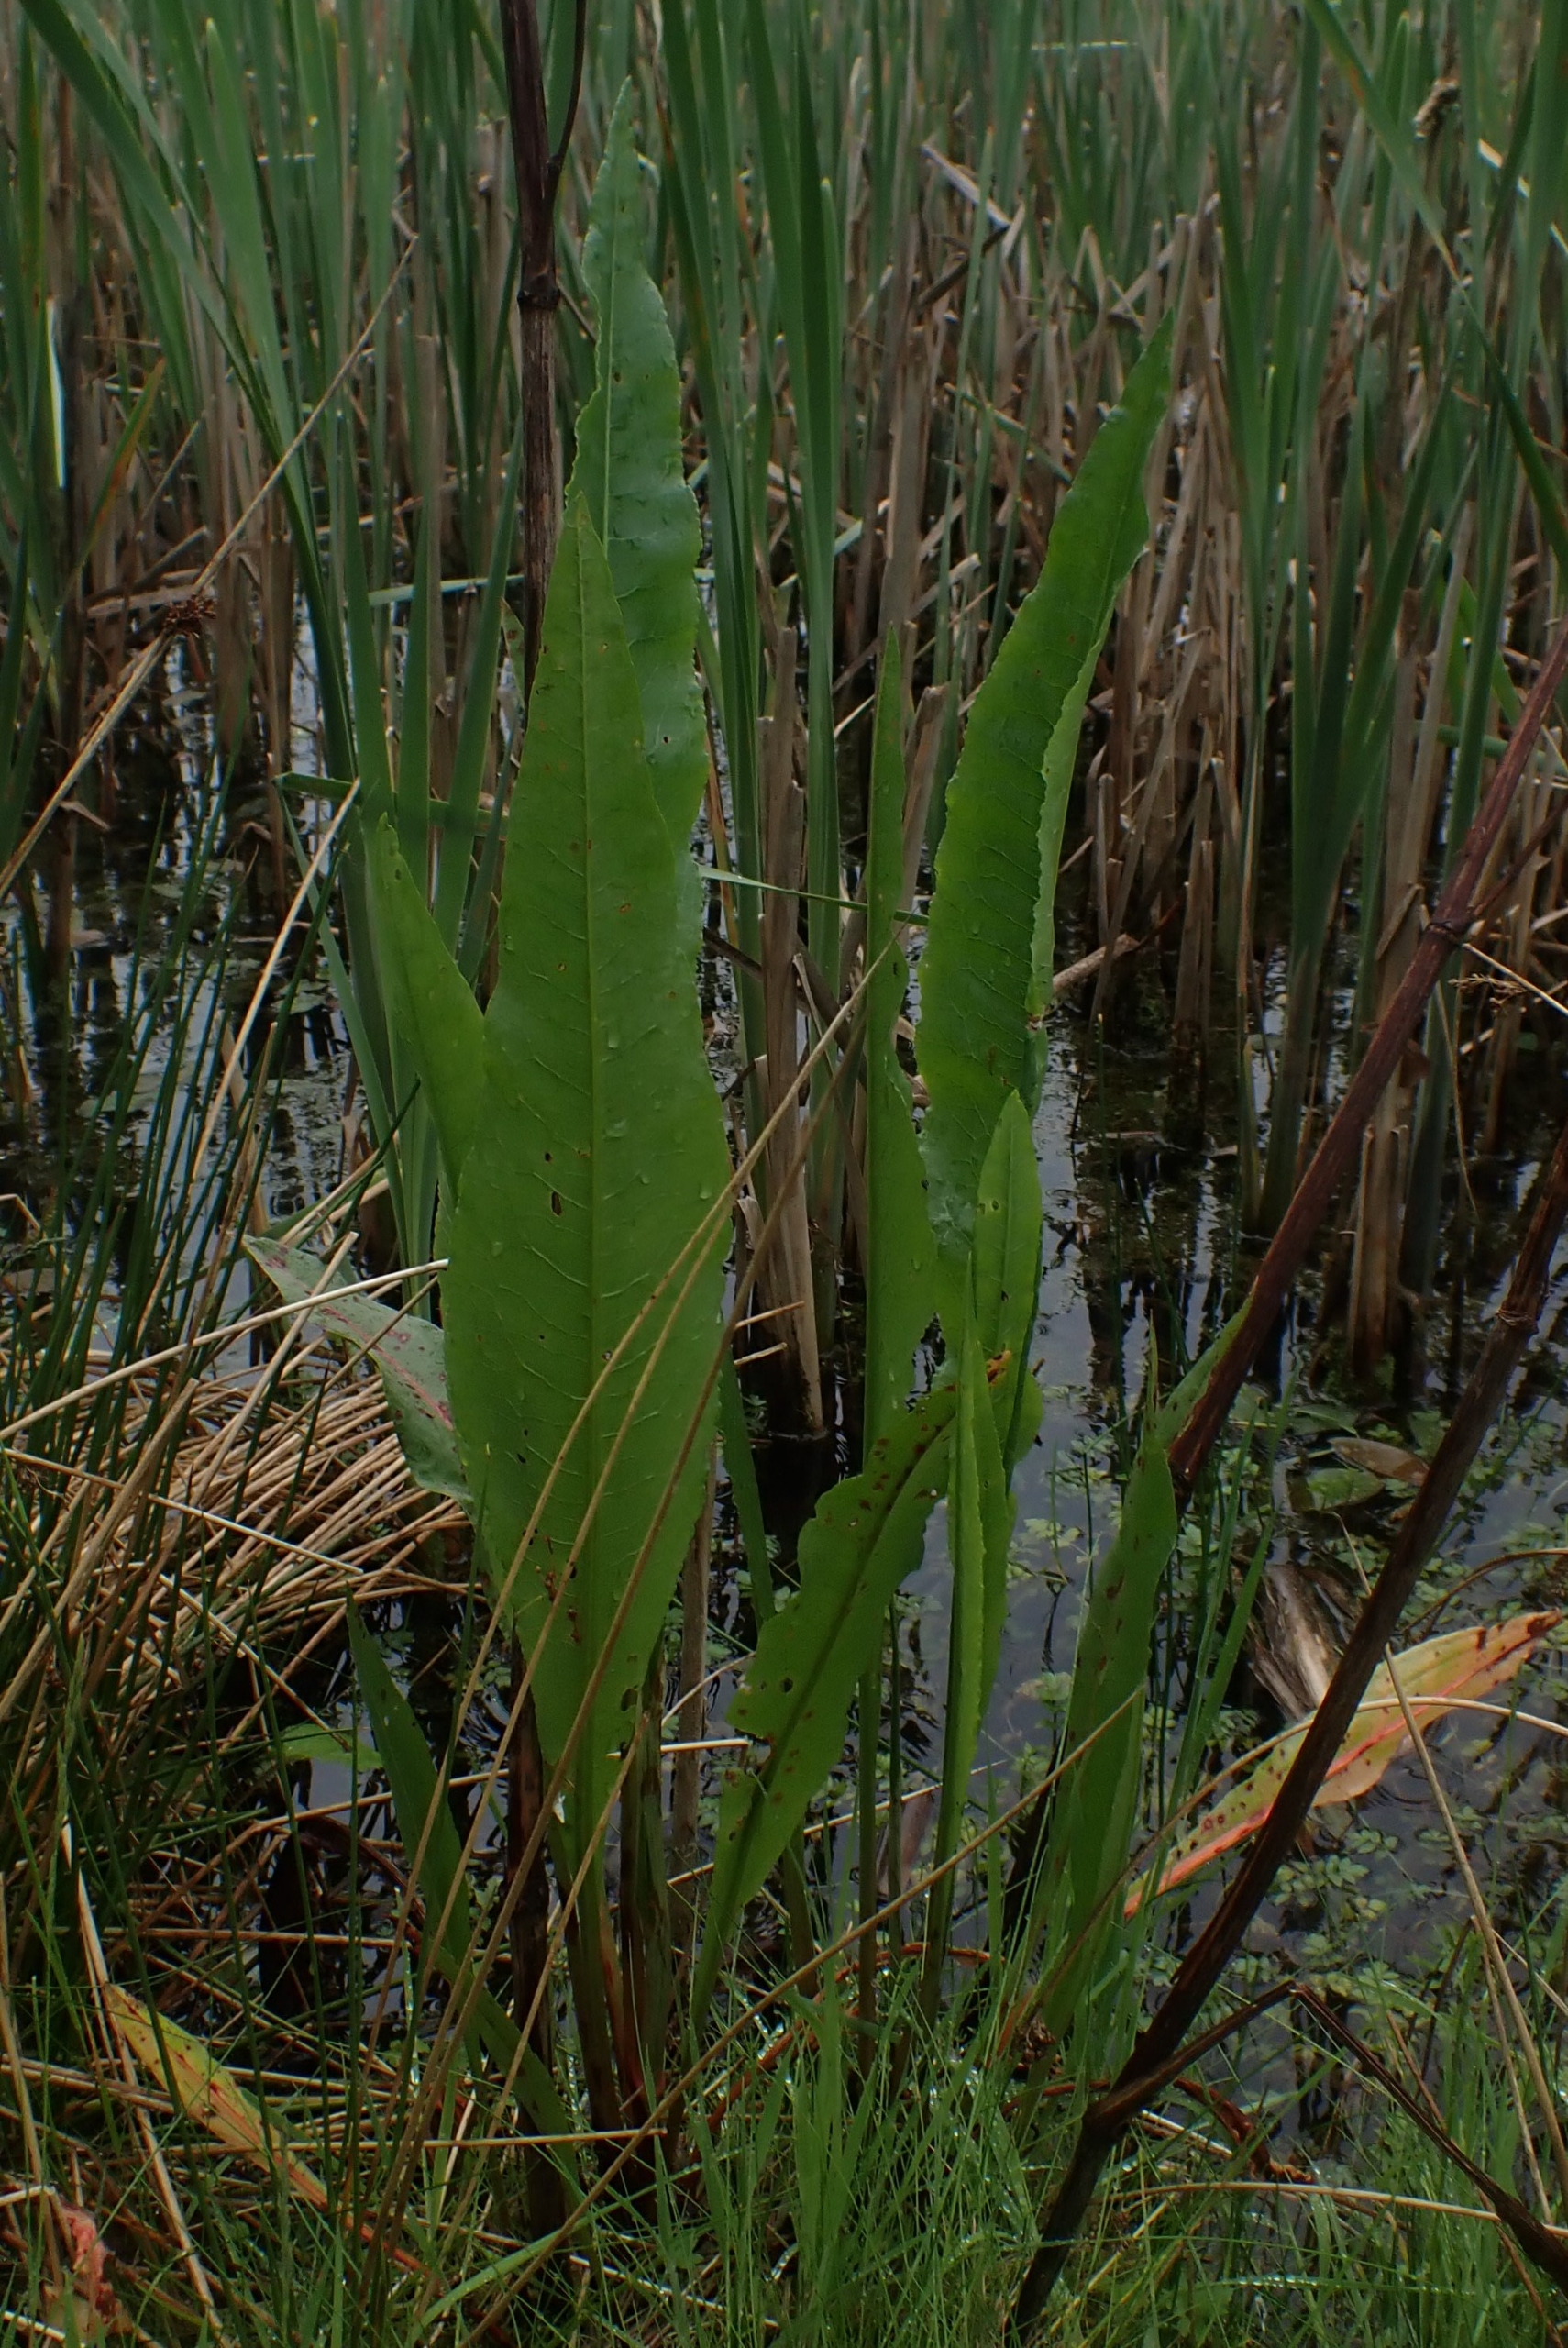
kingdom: Plantae
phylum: Tracheophyta
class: Magnoliopsida
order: Caryophyllales
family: Polygonaceae
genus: Rumex
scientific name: Rumex hydrolapathum
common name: Vand-skræppe
